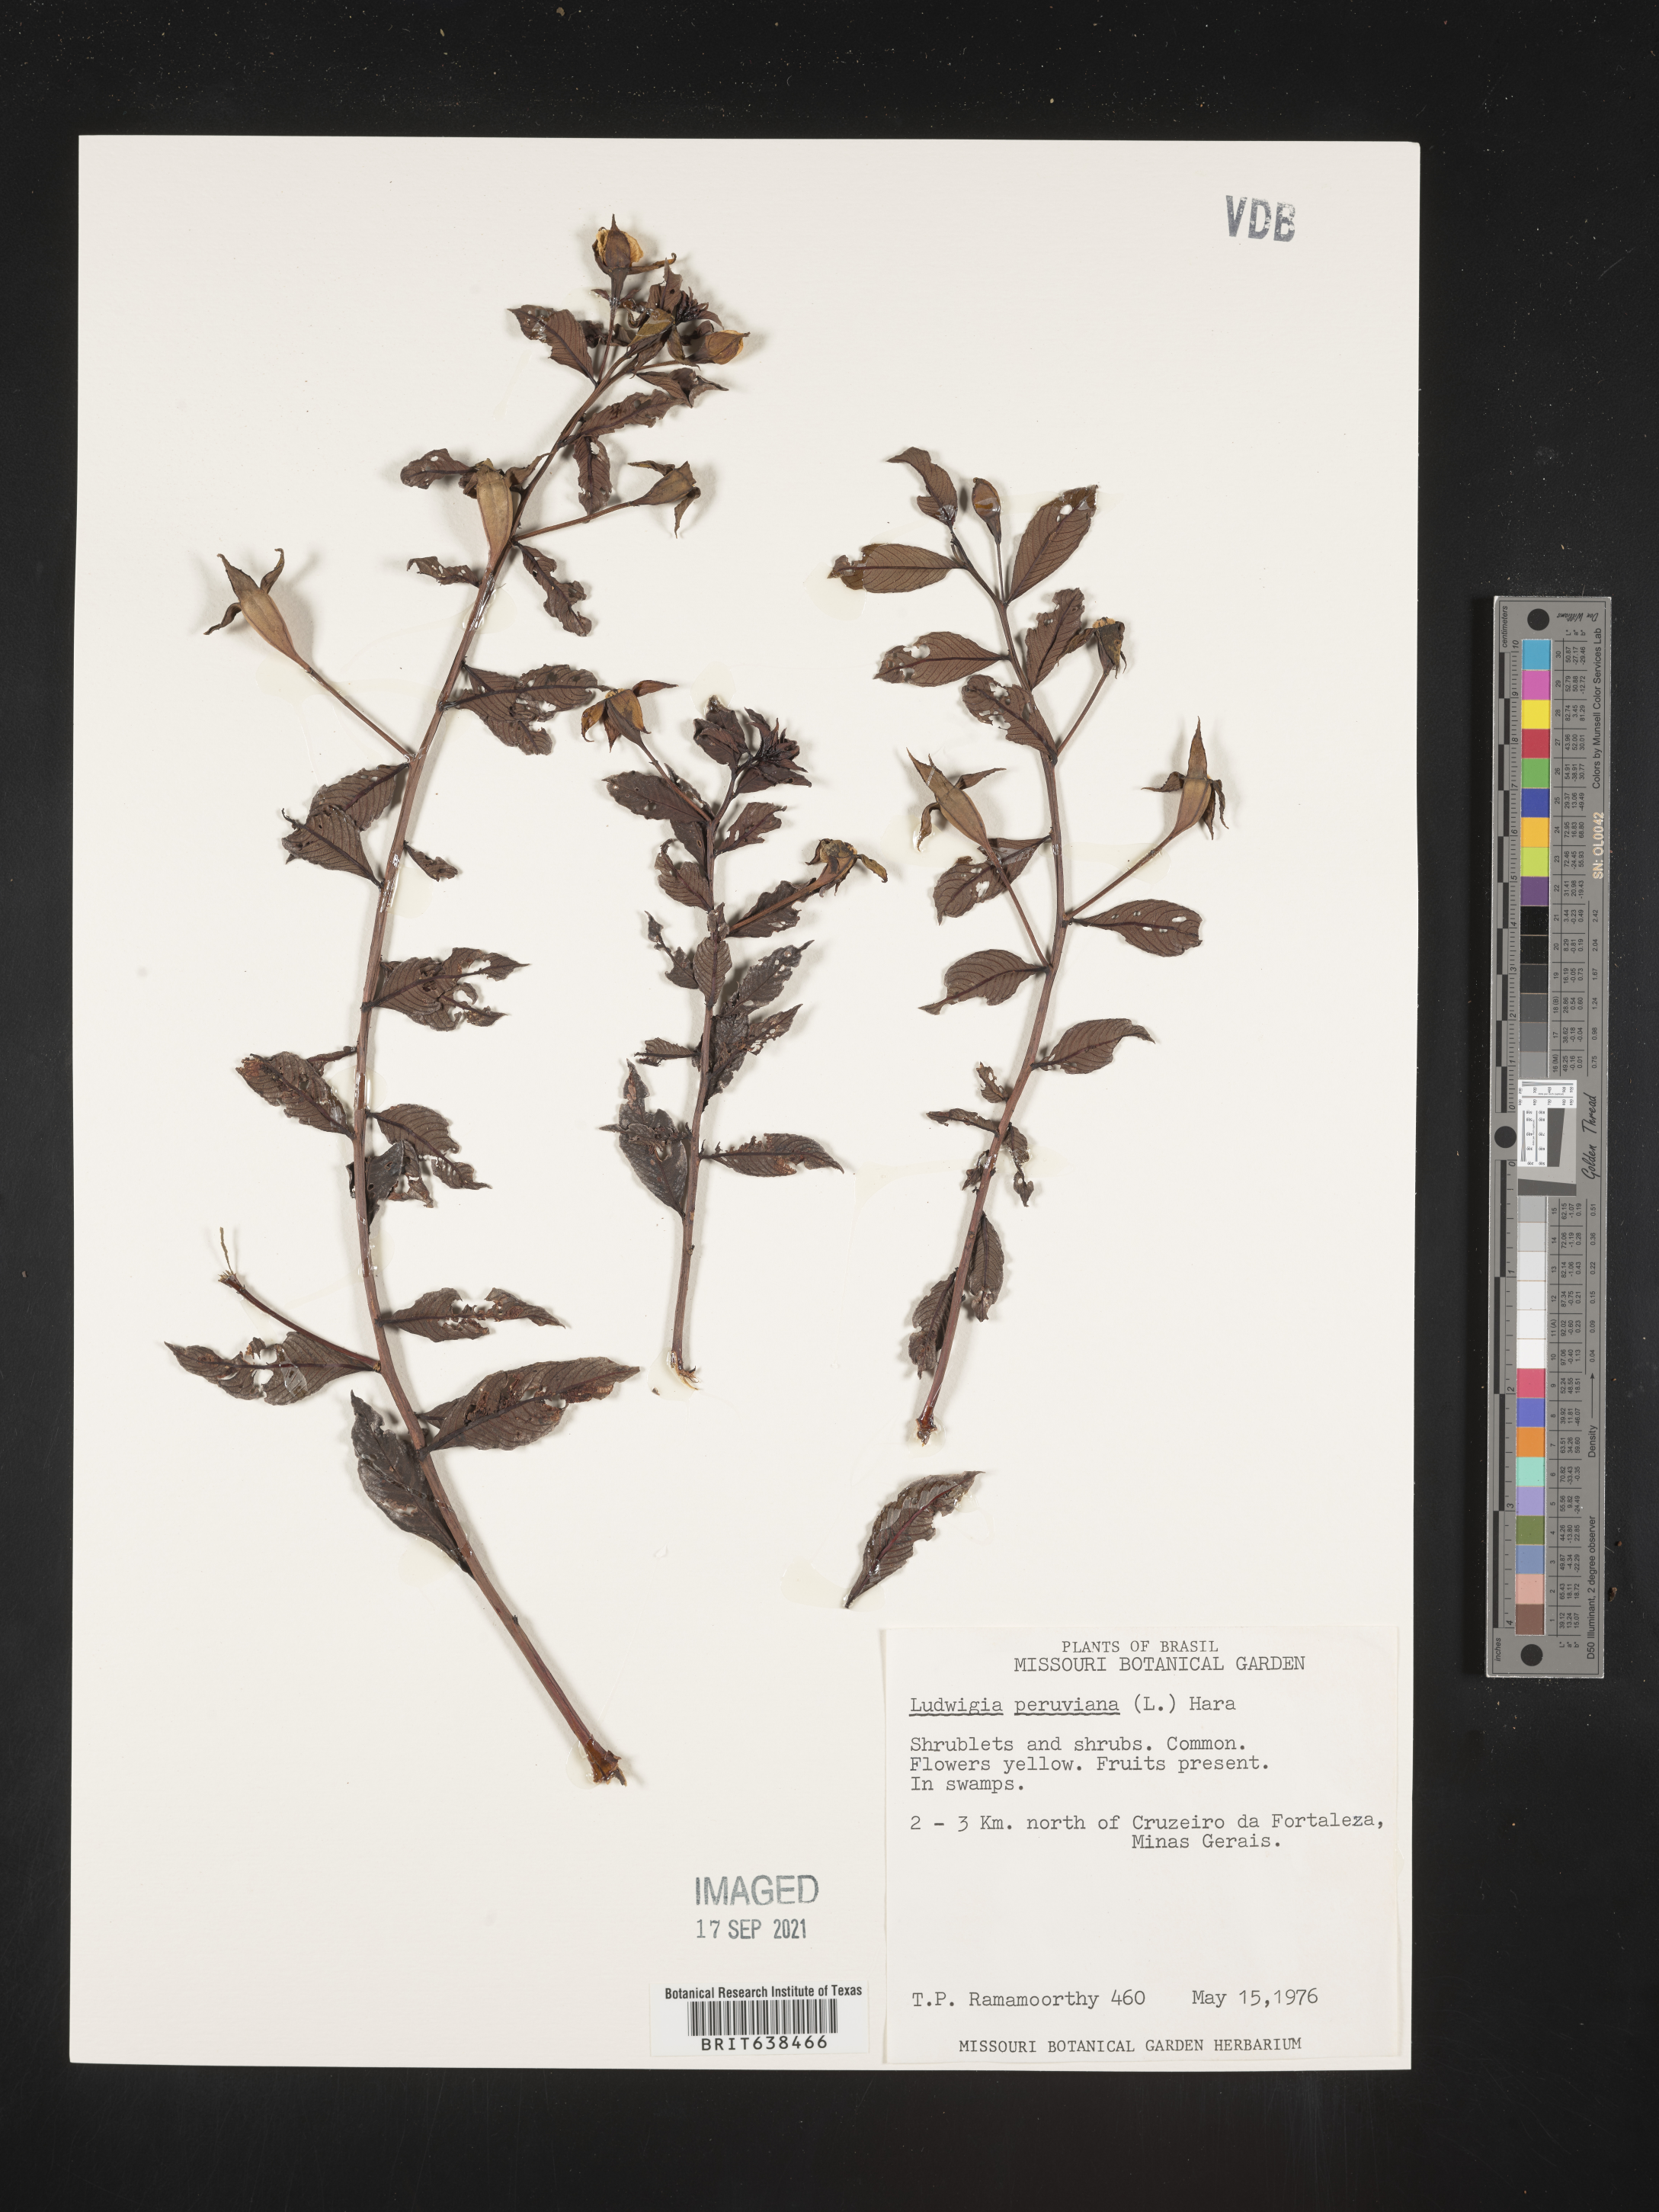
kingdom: Plantae
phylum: Tracheophyta
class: Magnoliopsida
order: Myrtales
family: Onagraceae
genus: Ludwigia
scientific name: Ludwigia
